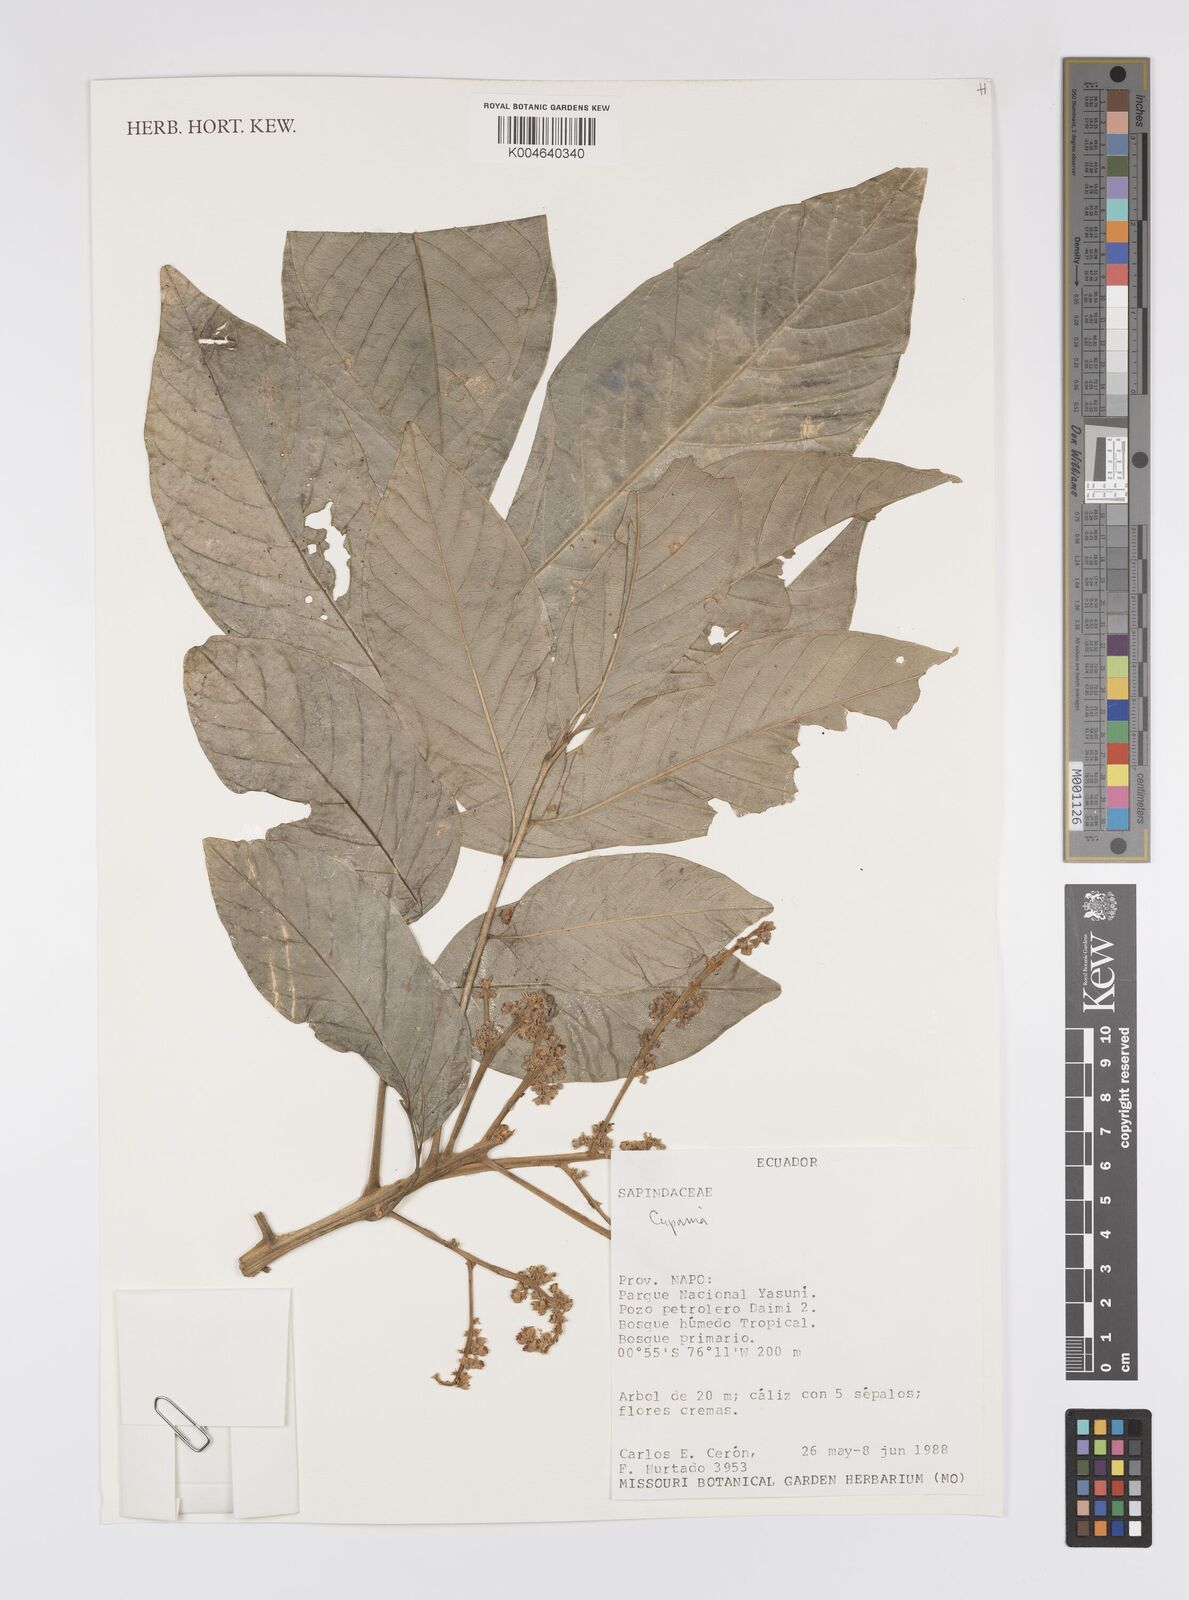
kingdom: Plantae
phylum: Tracheophyta
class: Magnoliopsida
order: Sapindales
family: Sapindaceae
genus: Cupania
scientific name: Cupania
